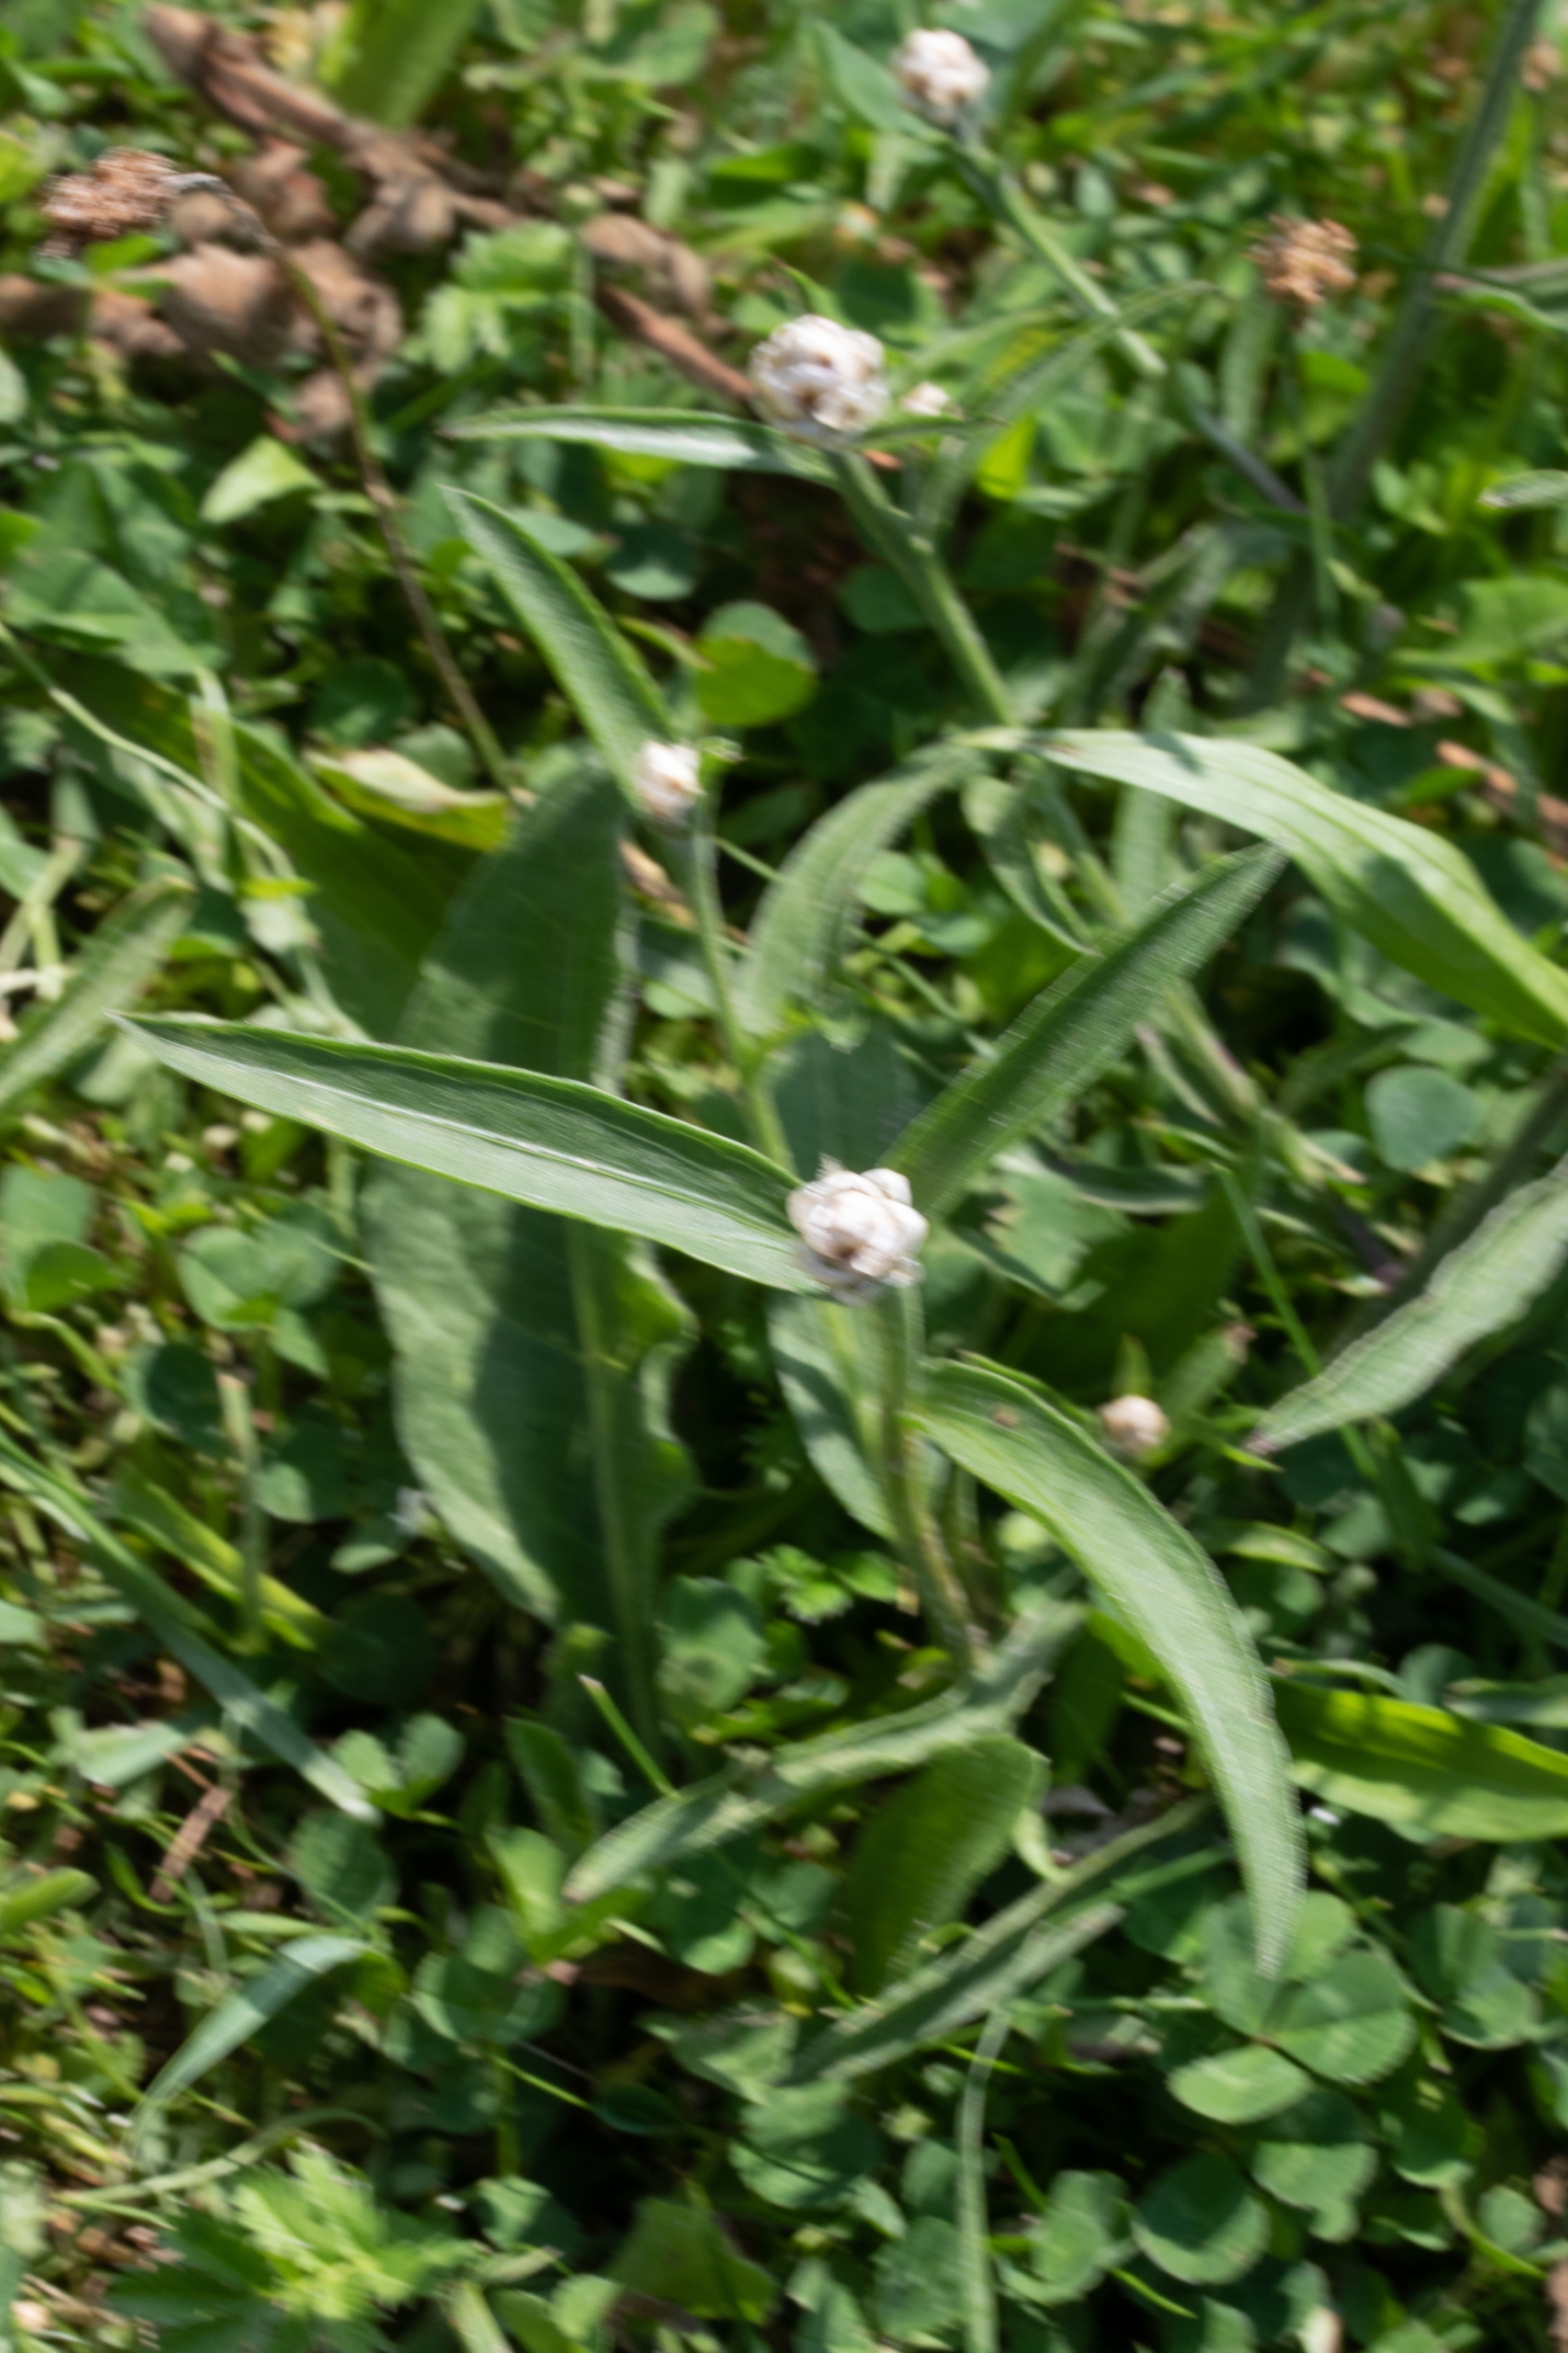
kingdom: Plantae
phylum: Tracheophyta
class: Magnoliopsida
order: Asterales
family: Asteraceae
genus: Centaurea
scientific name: Centaurea jacea
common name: Almindelig knopurt
